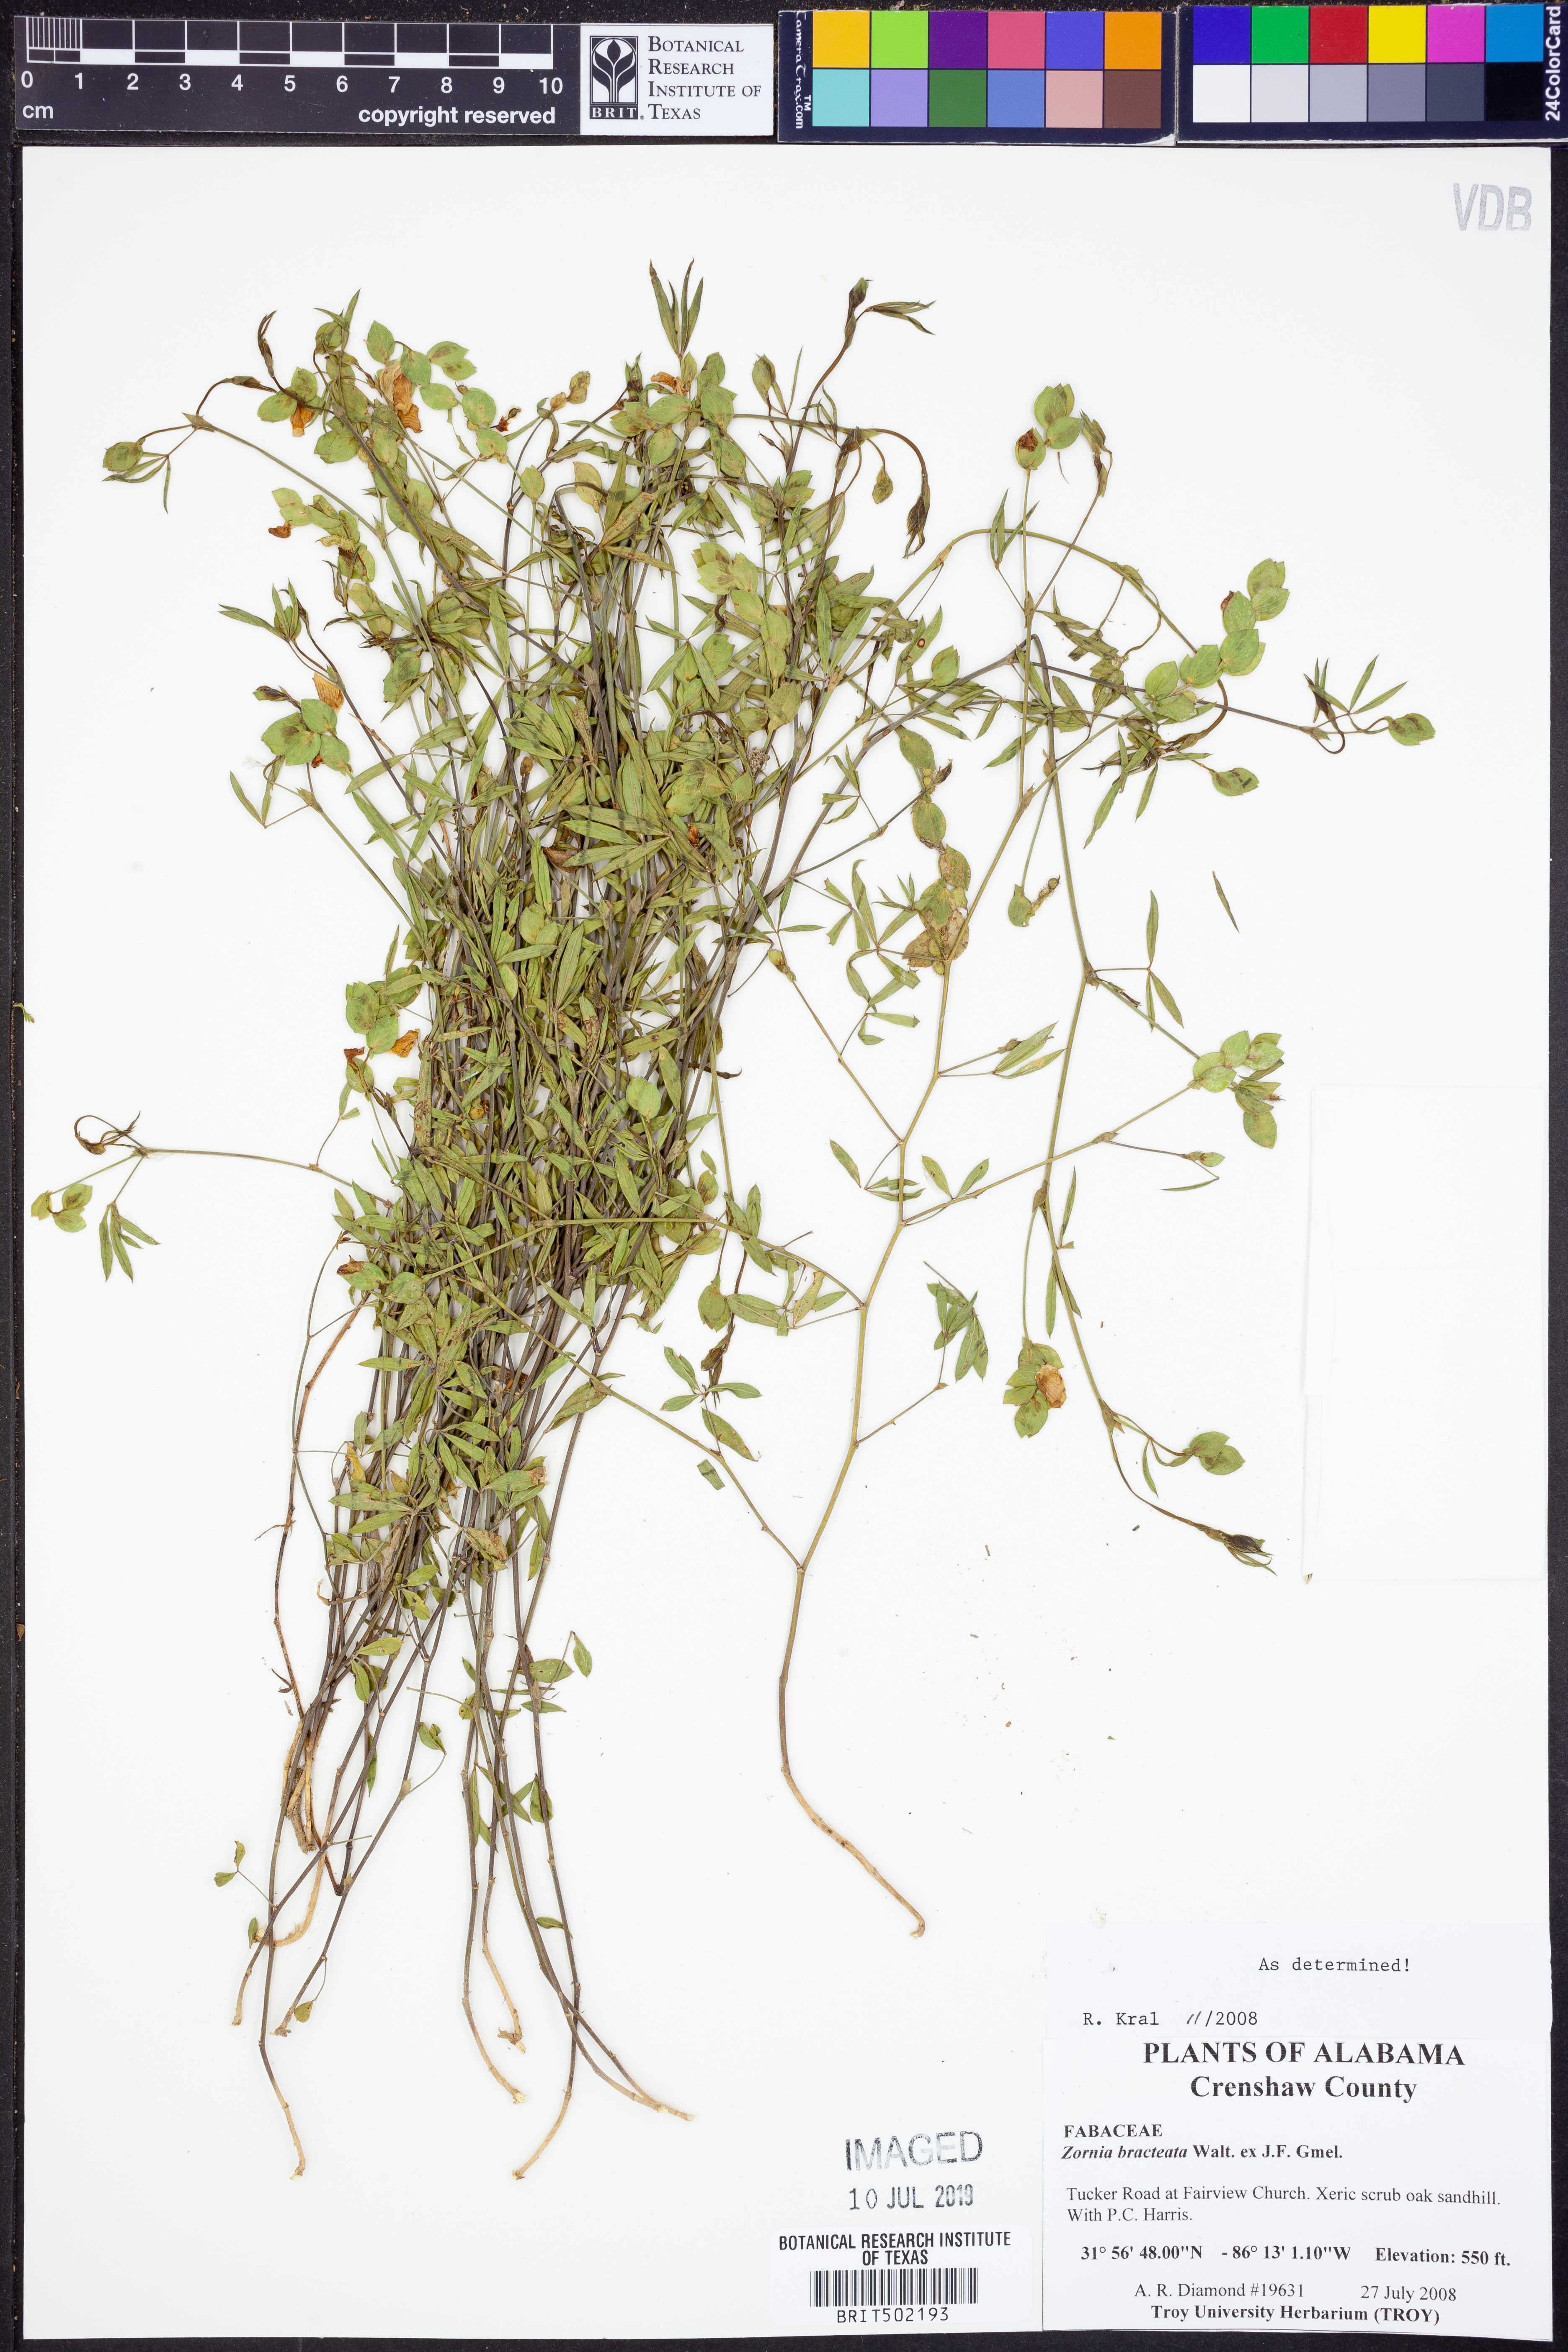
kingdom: Plantae
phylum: Tracheophyta
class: Magnoliopsida
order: Fabales
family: Fabaceae
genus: Zornia
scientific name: Zornia bracteata
